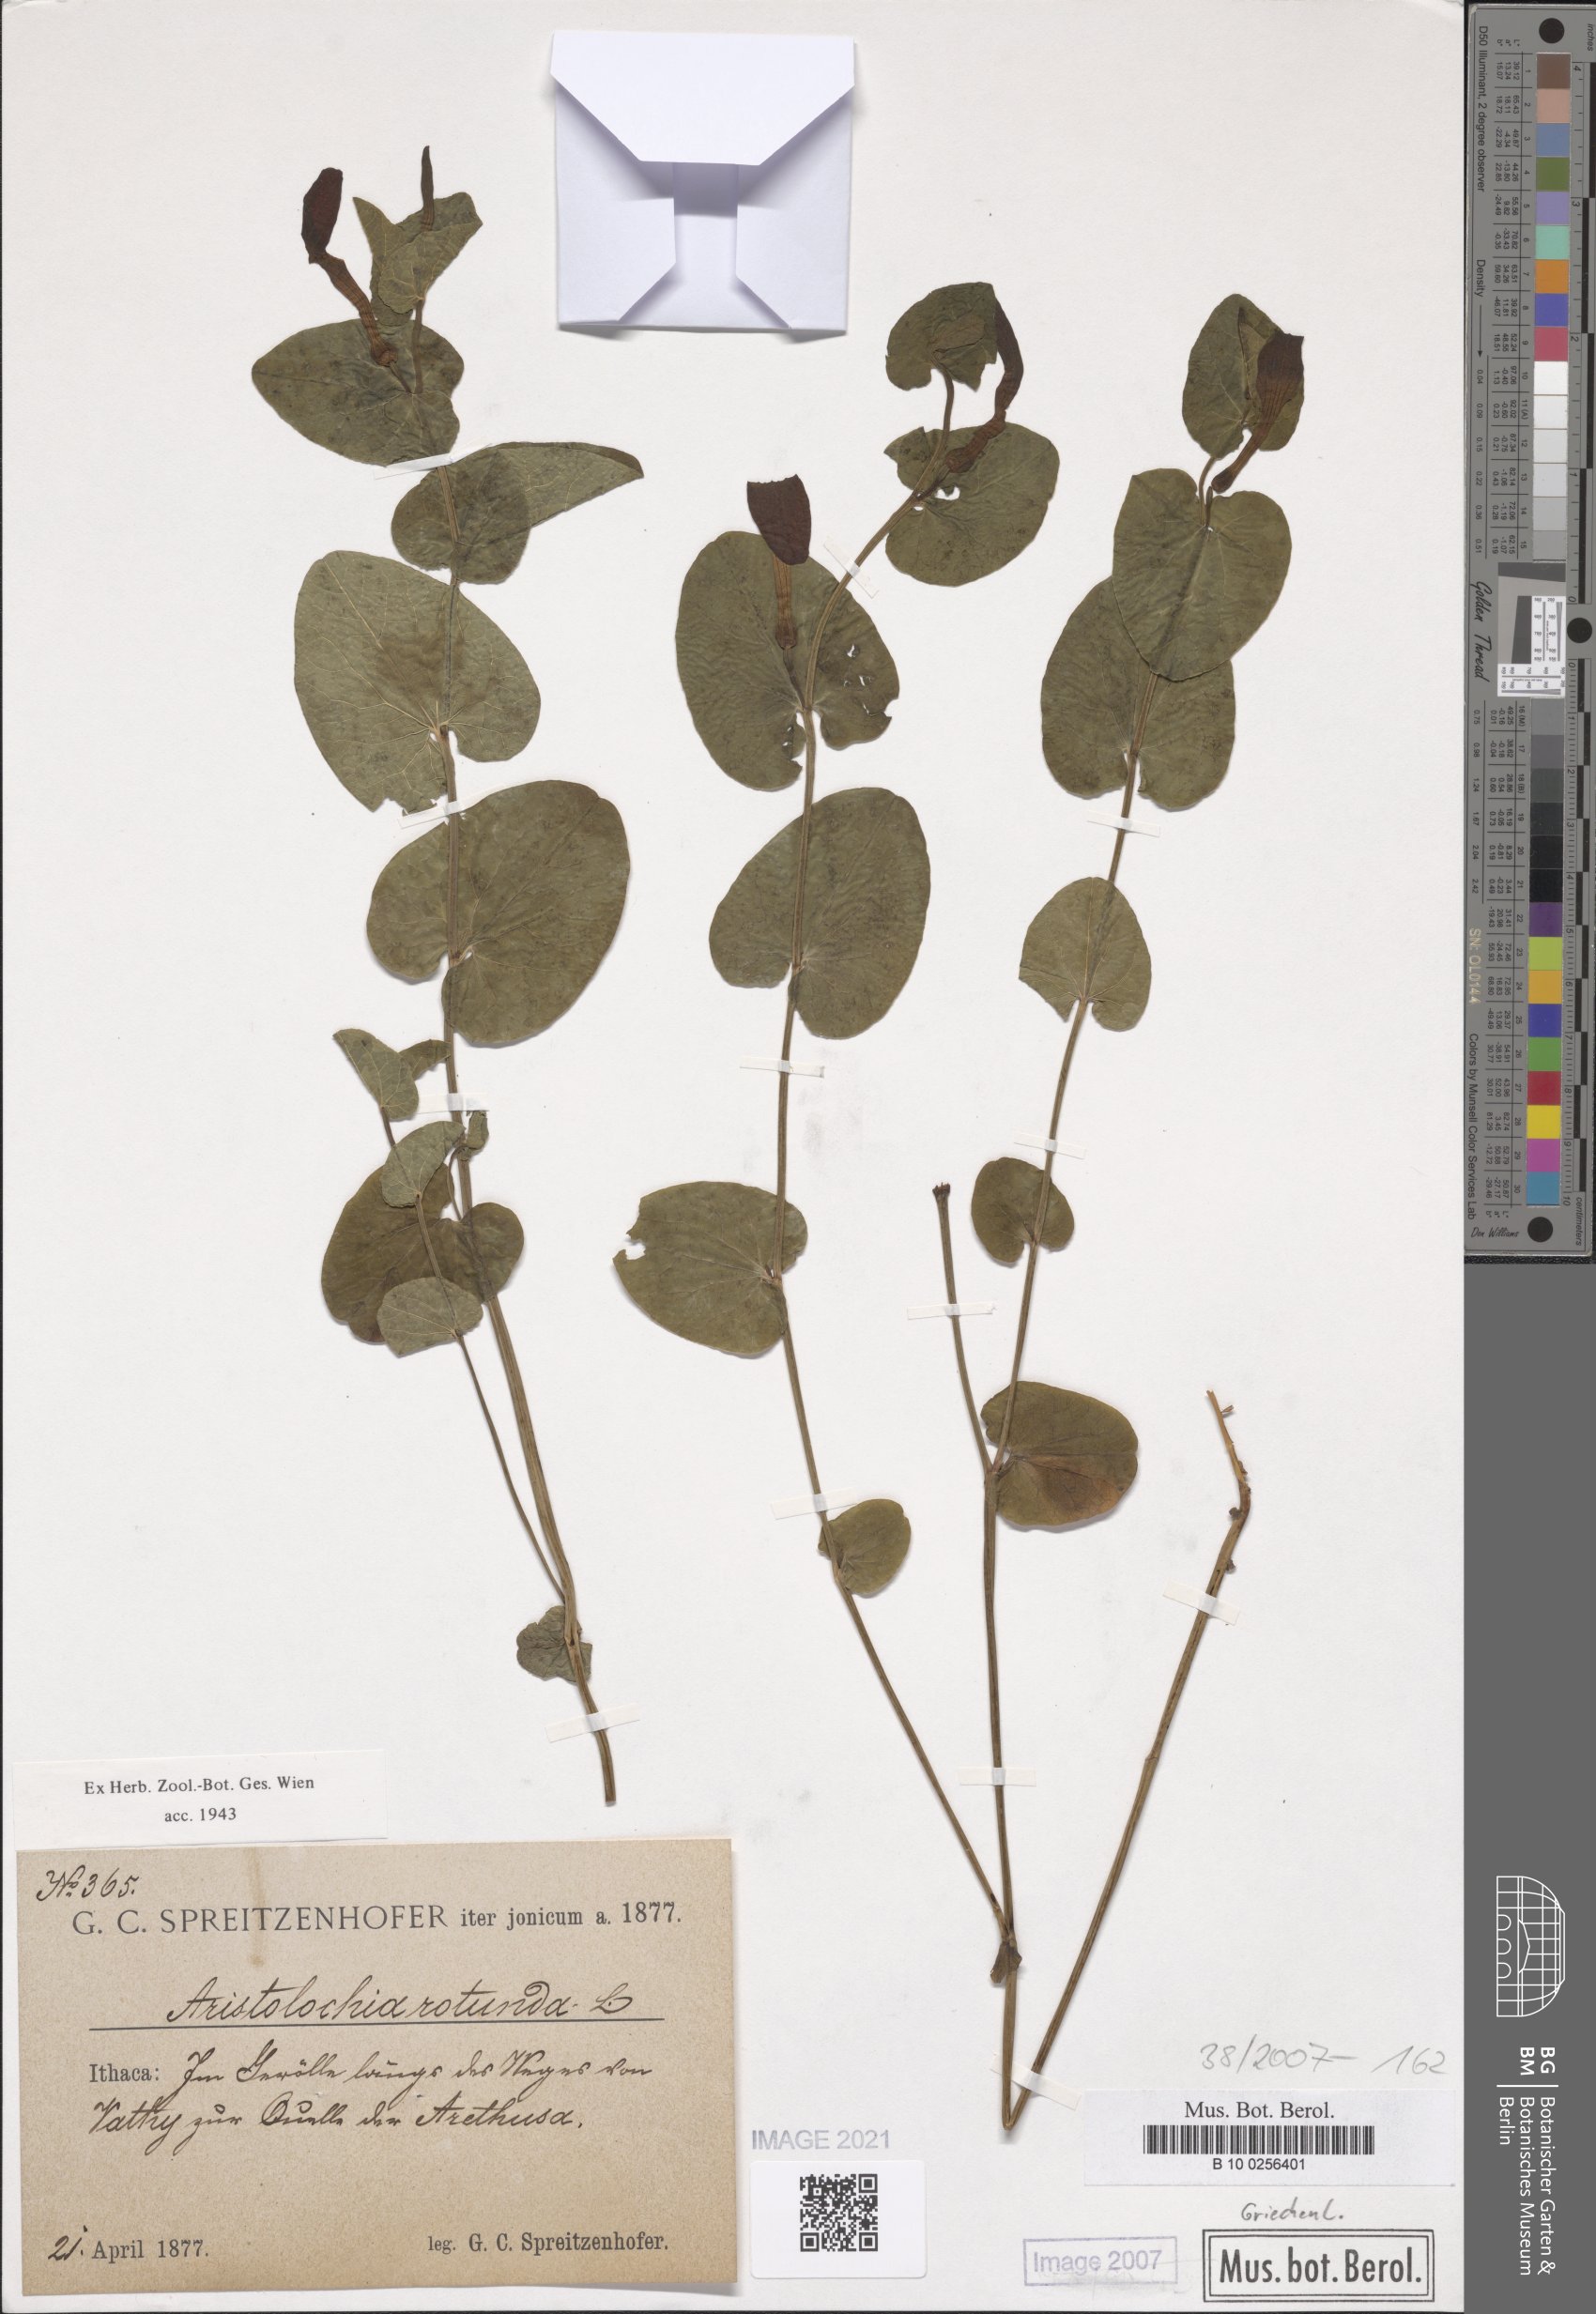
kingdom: Plantae
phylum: Tracheophyta
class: Magnoliopsida
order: Piperales
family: Aristolochiaceae
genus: Aristolochia
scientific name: Aristolochia rotunda
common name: Smearwort
